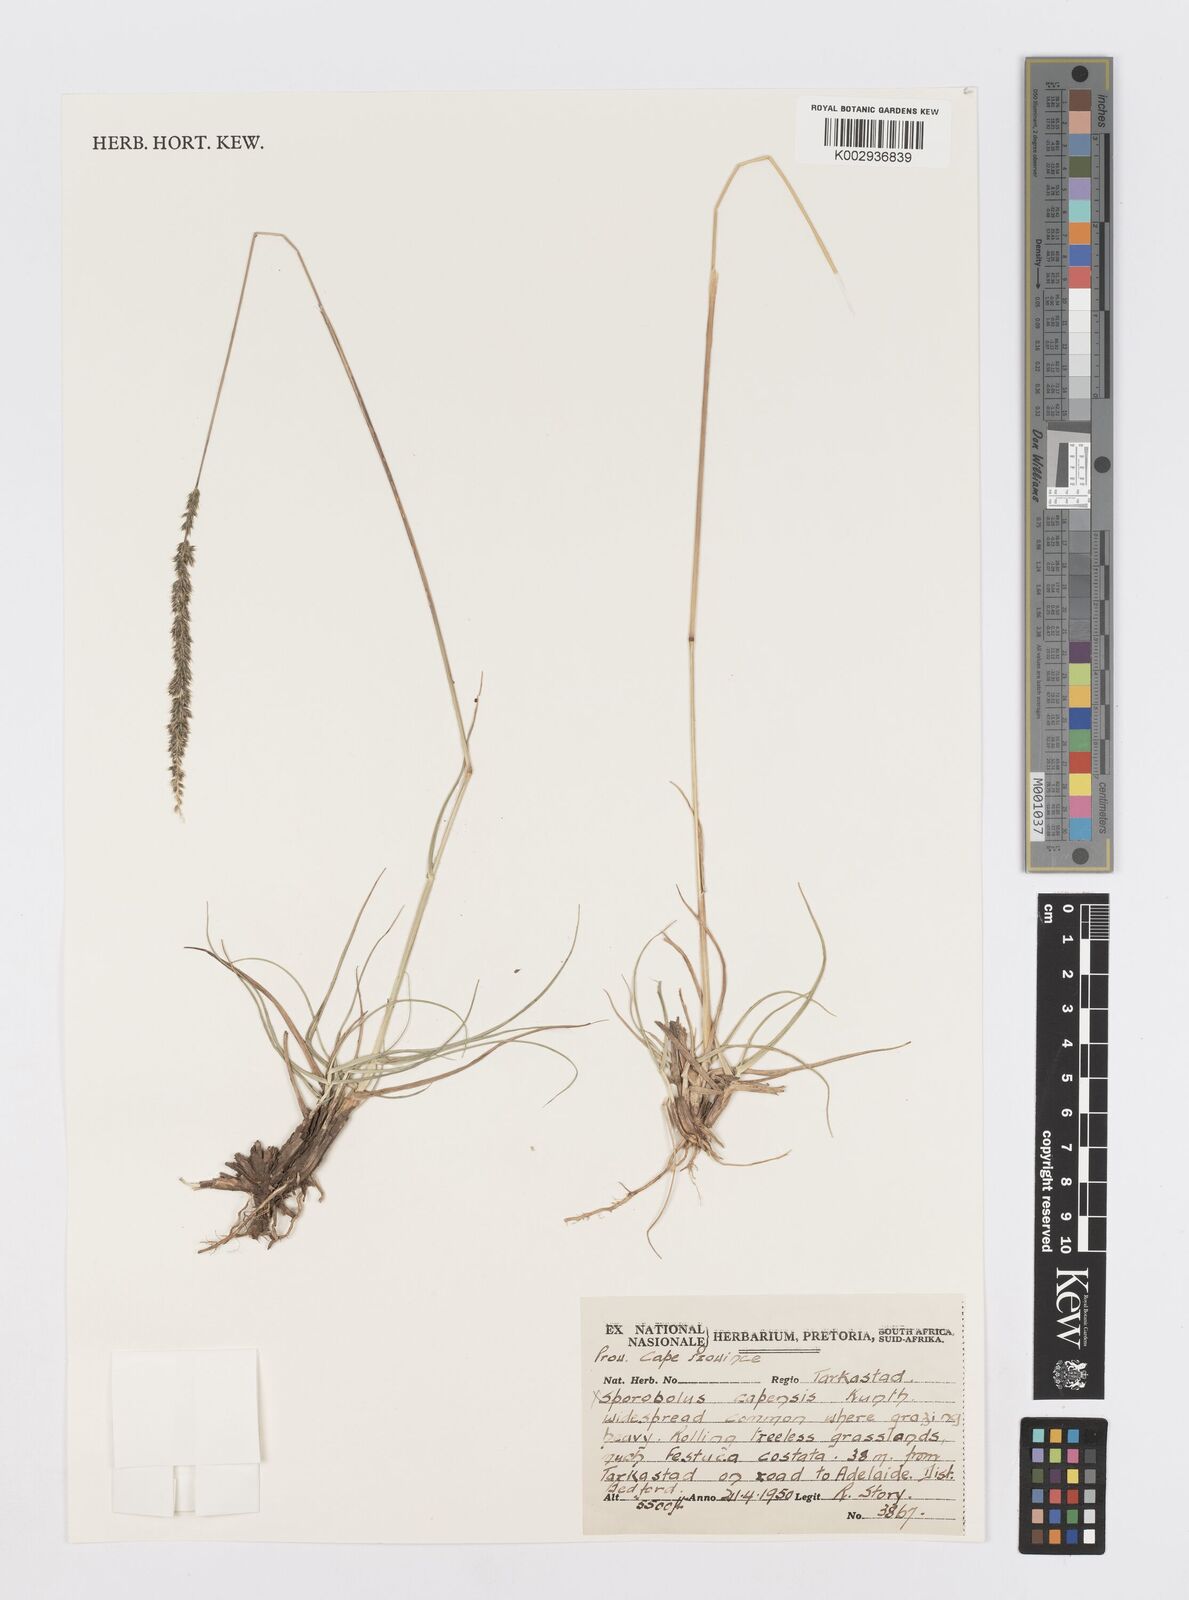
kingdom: Plantae
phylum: Tracheophyta
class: Liliopsida
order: Poales
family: Poaceae
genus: Sporobolus
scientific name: Sporobolus africanus
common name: African dropseed
